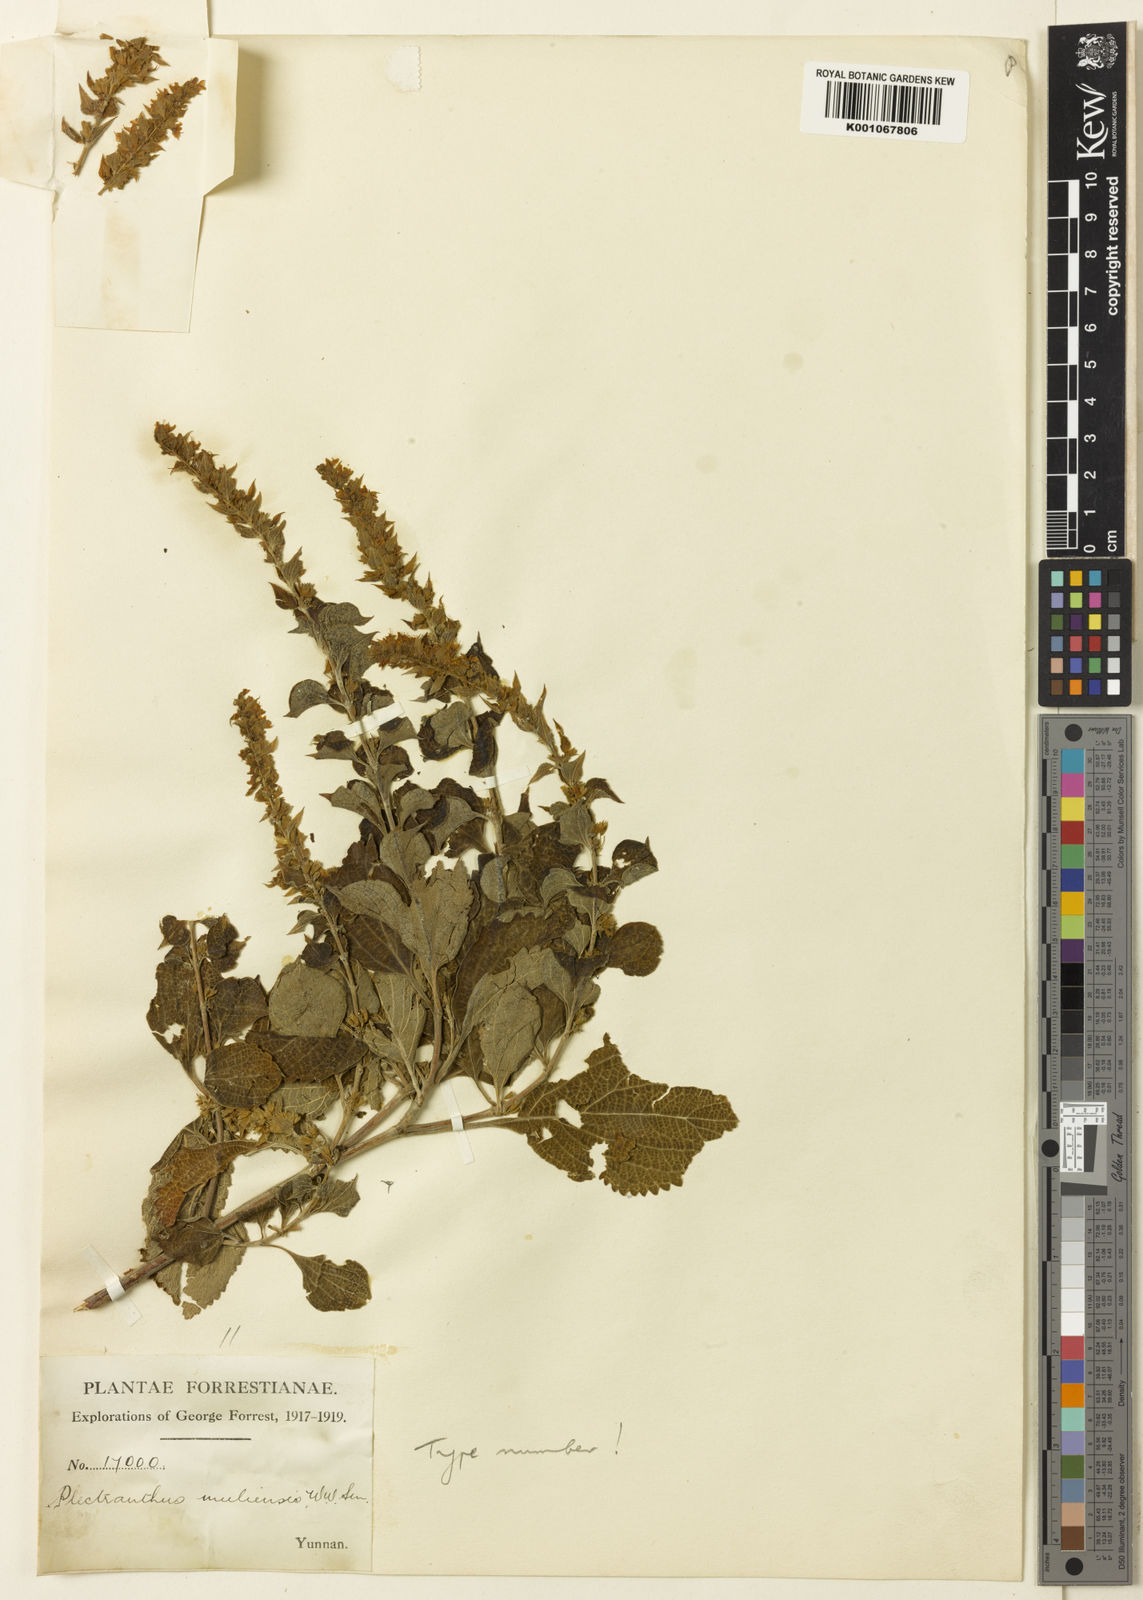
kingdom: Plantae
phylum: Tracheophyta
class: Magnoliopsida
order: Lamiales
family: Lamiaceae
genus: Isodon
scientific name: Isodon
